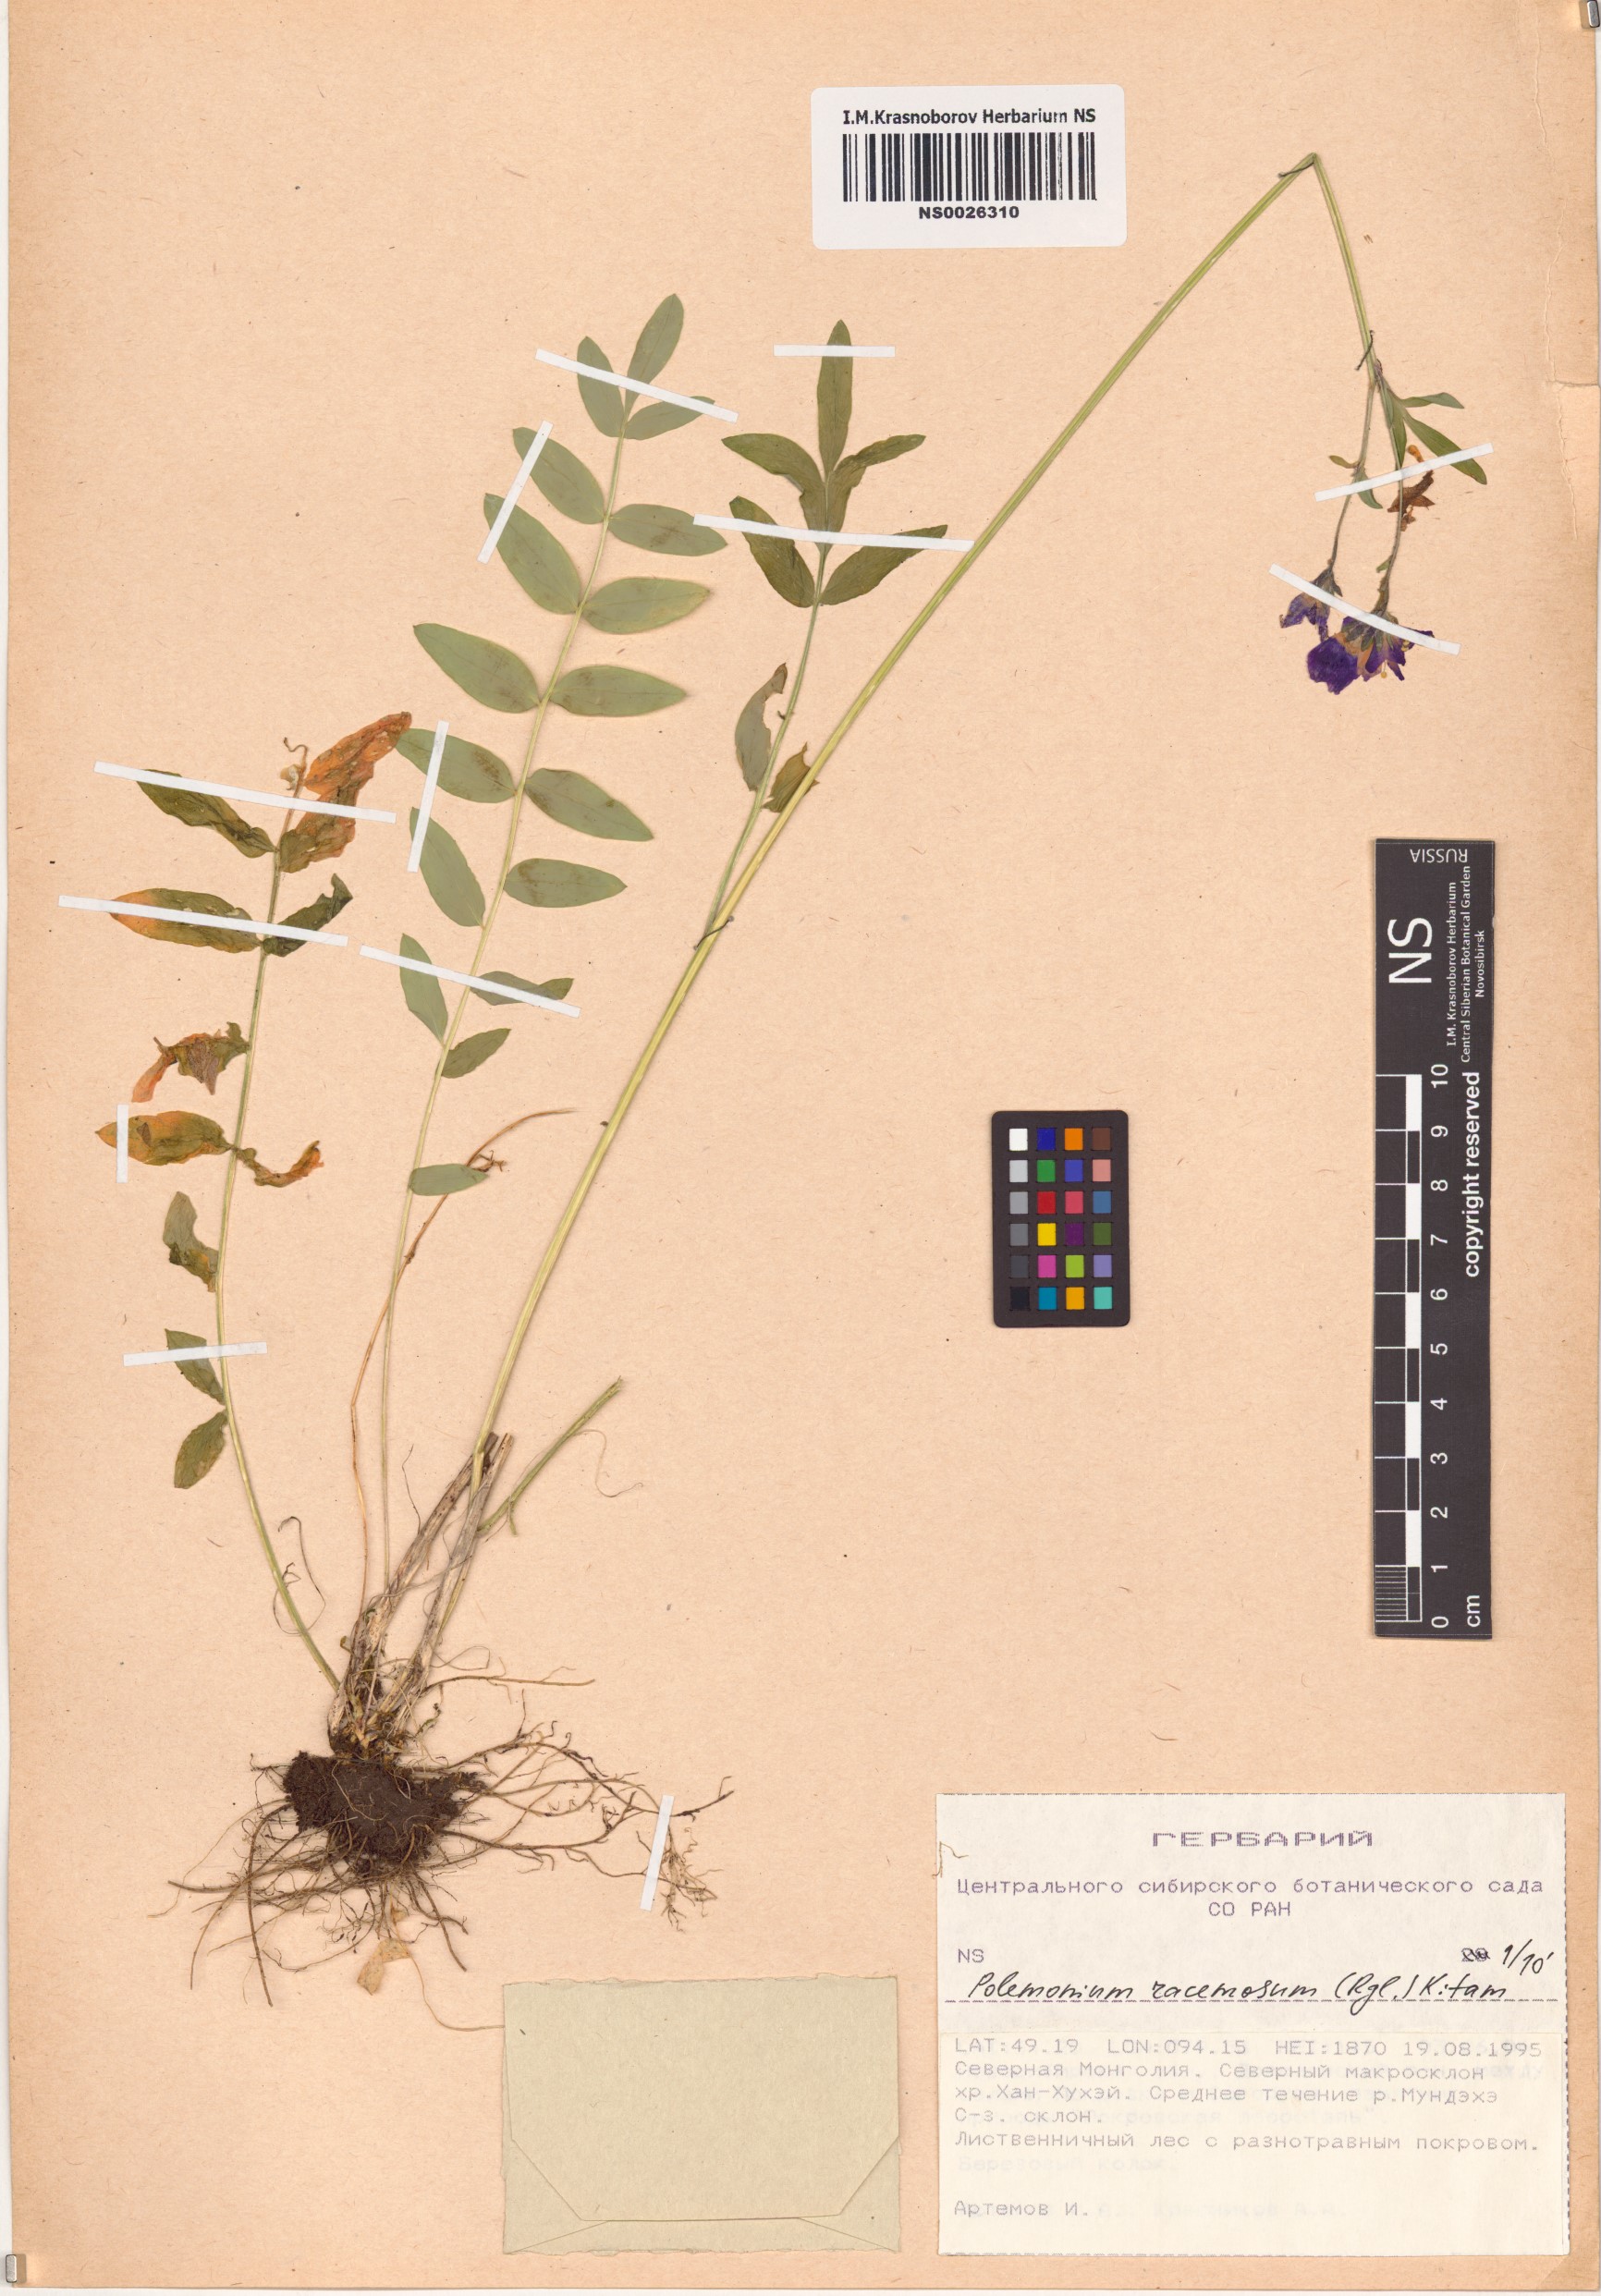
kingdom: Plantae
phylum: Tracheophyta
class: Magnoliopsida
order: Ericales
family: Polemoniaceae
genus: Polemonium
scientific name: Polemonium villosum
